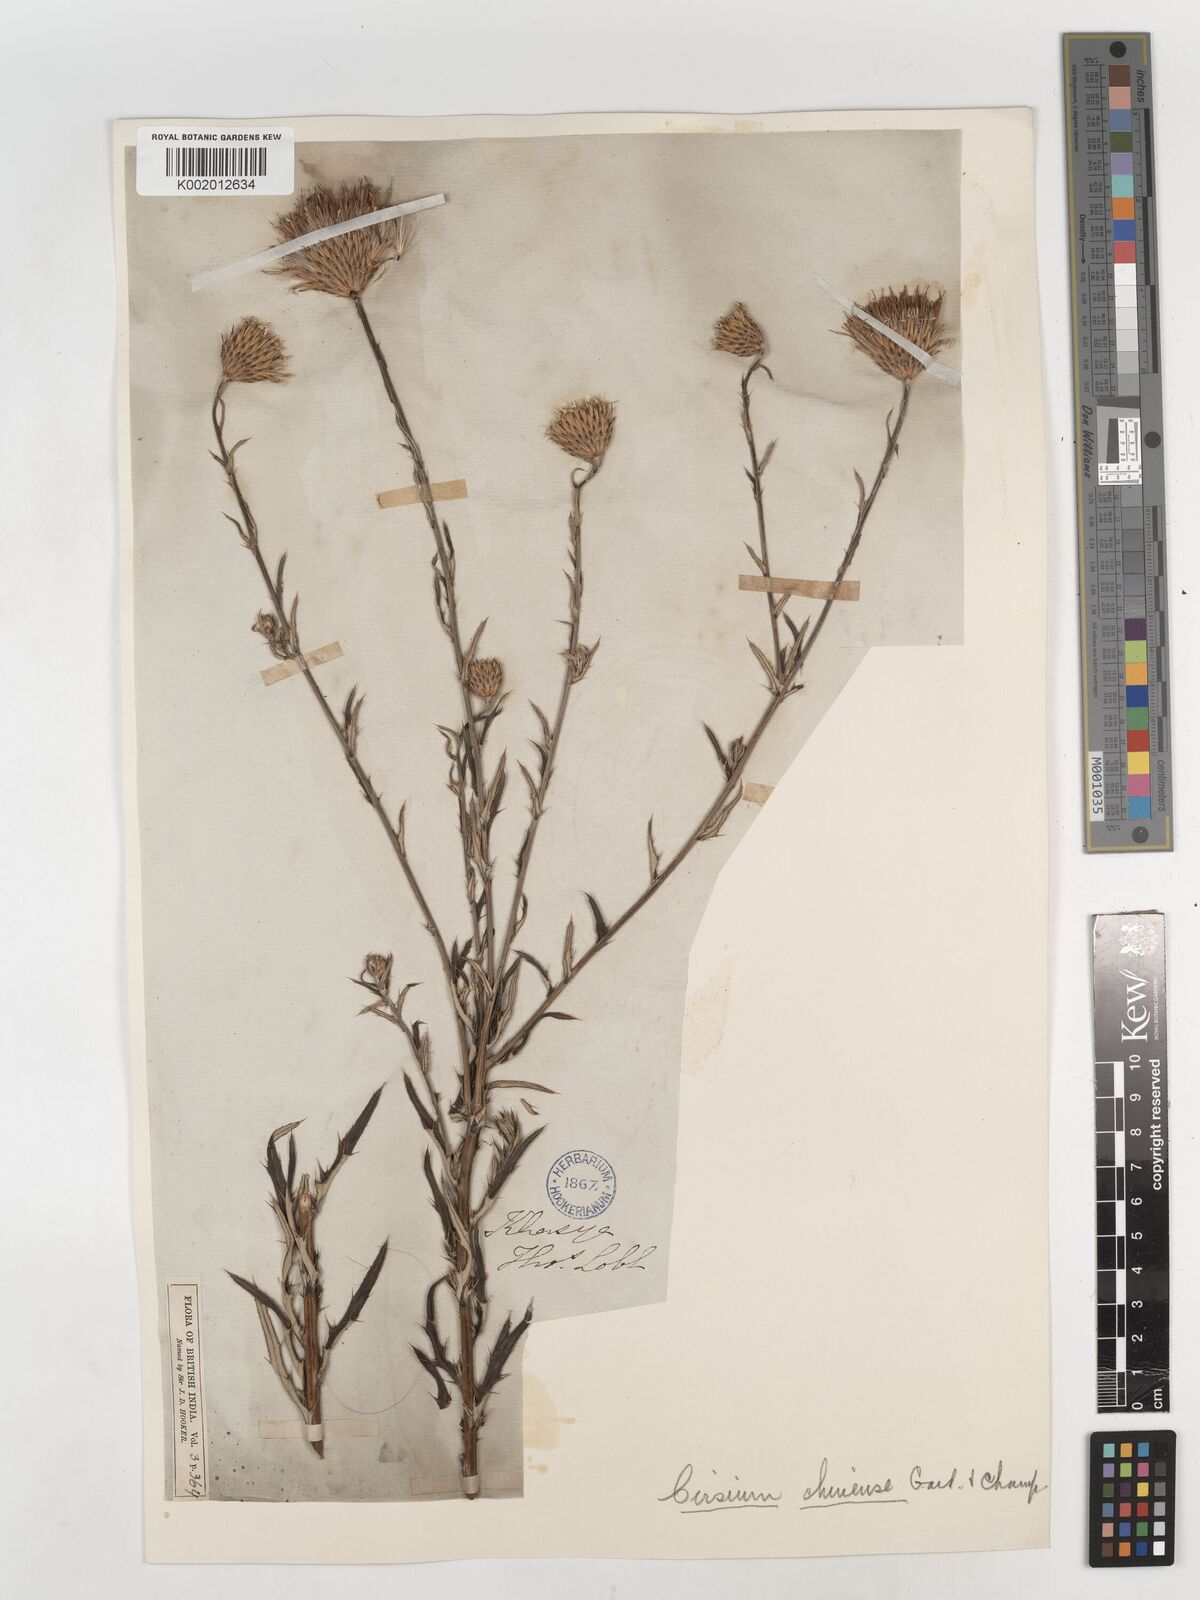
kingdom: Plantae
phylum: Tracheophyta
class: Magnoliopsida
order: Asterales
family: Asteraceae
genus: Cirsium
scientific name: Cirsium chinense
